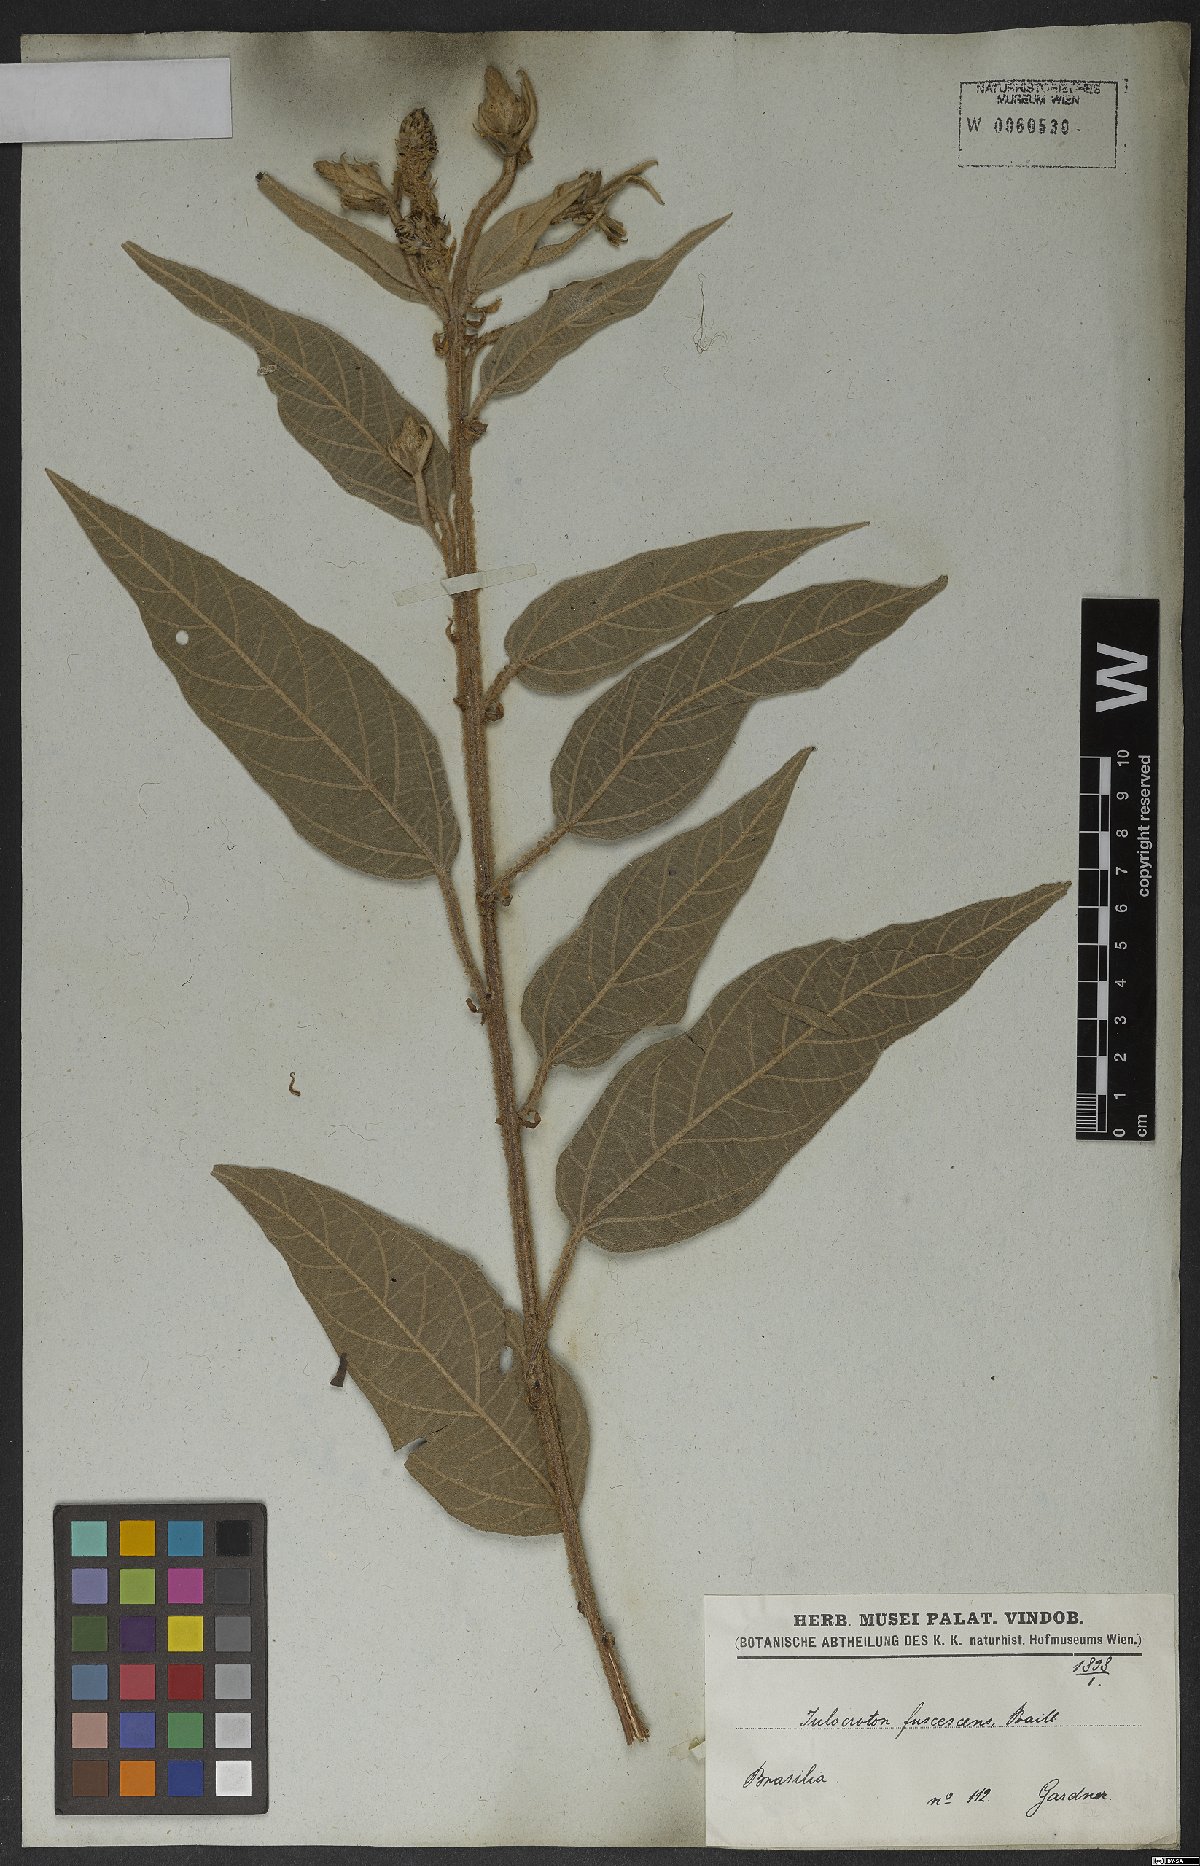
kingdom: Plantae
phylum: Tracheophyta
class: Magnoliopsida
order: Malpighiales
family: Euphorbiaceae
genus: Croton
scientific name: Croton gnaphaloides
